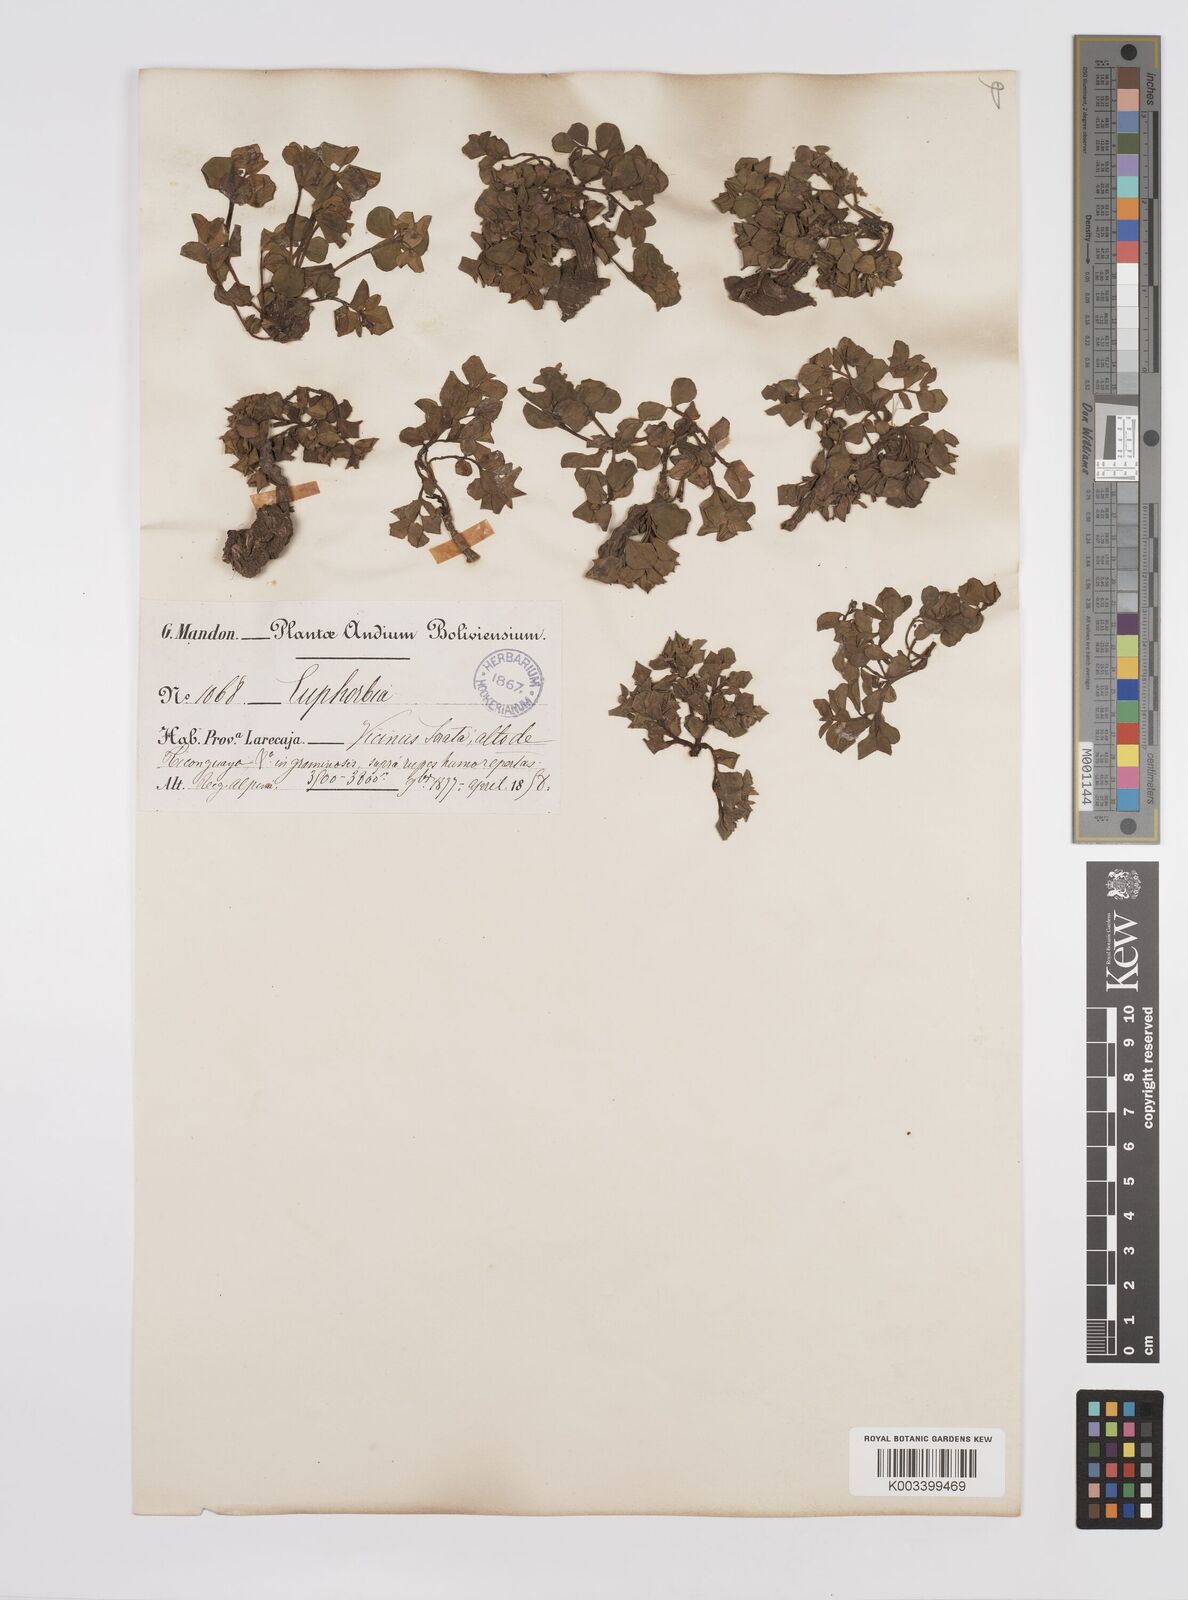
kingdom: Plantae
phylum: Tracheophyta
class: Magnoliopsida
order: Malpighiales
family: Euphorbiaceae
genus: Euphorbia
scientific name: Euphorbia
